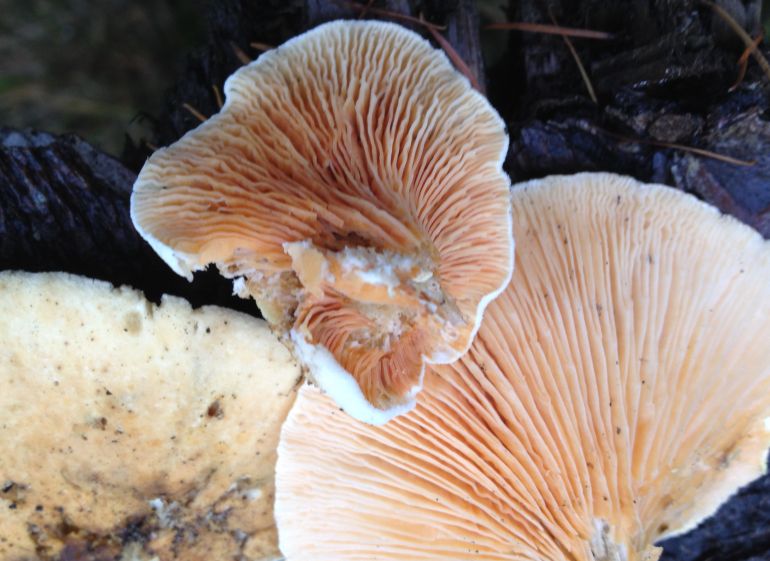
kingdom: Fungi
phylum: Basidiomycota
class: Agaricomycetes
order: Boletales
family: Tapinellaceae
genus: Tapinella
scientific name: Tapinella panuoides
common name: tømmer-viftesvamp
